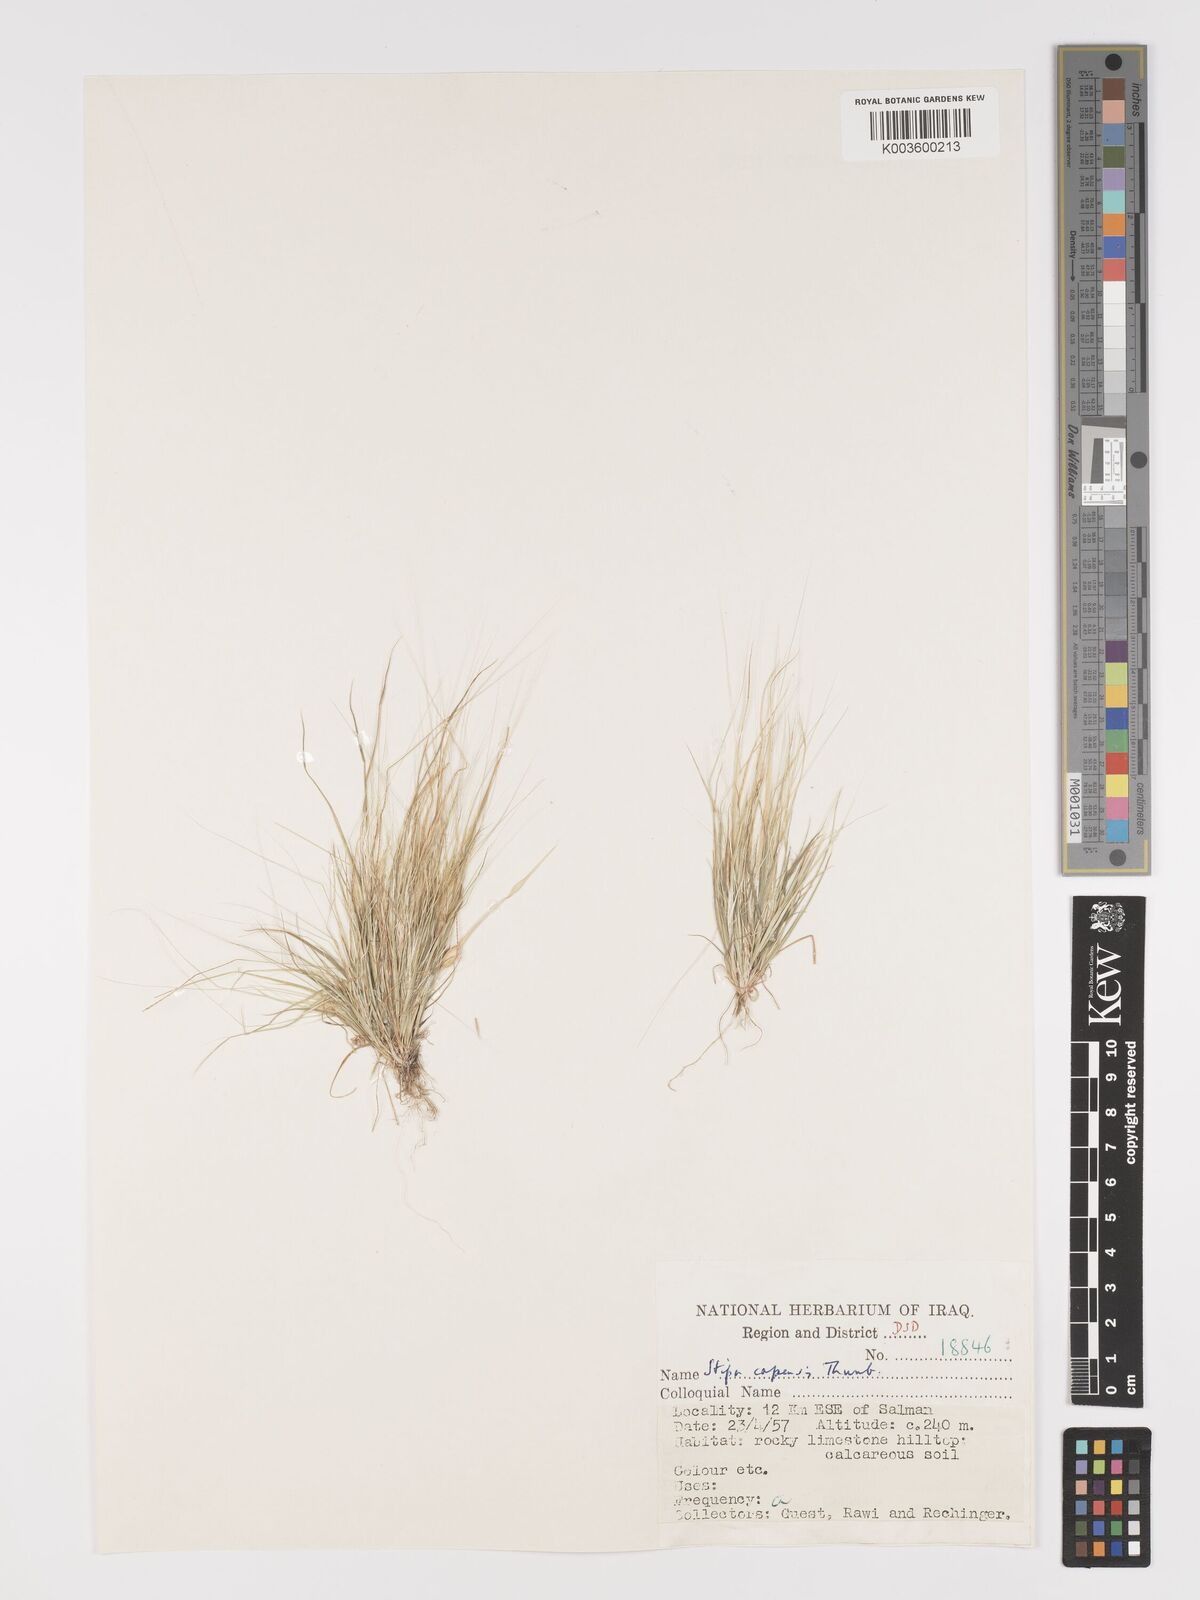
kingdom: Plantae
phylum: Tracheophyta
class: Liliopsida
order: Poales
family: Poaceae
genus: Stipellula
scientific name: Stipellula capensis
